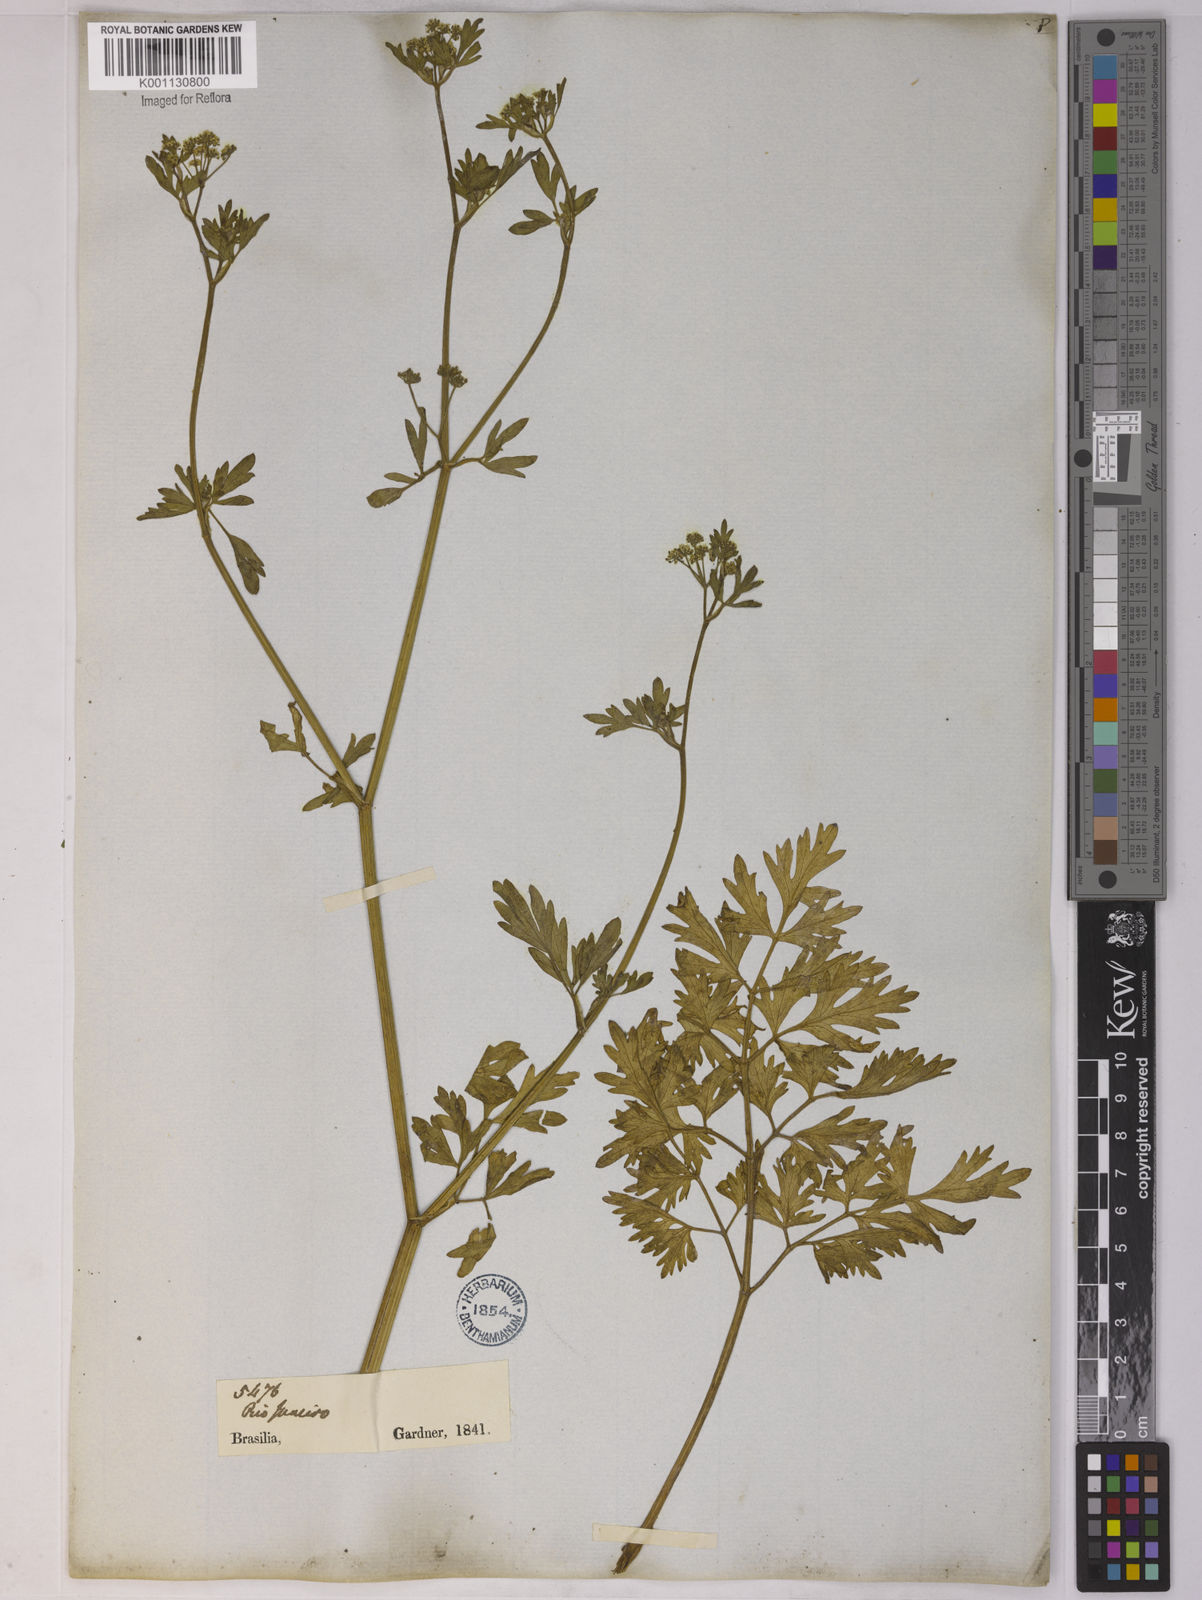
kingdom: Plantae
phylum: Tracheophyta
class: Magnoliopsida
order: Apiales
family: Apiaceae
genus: Apium
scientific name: Apium sellowianum
